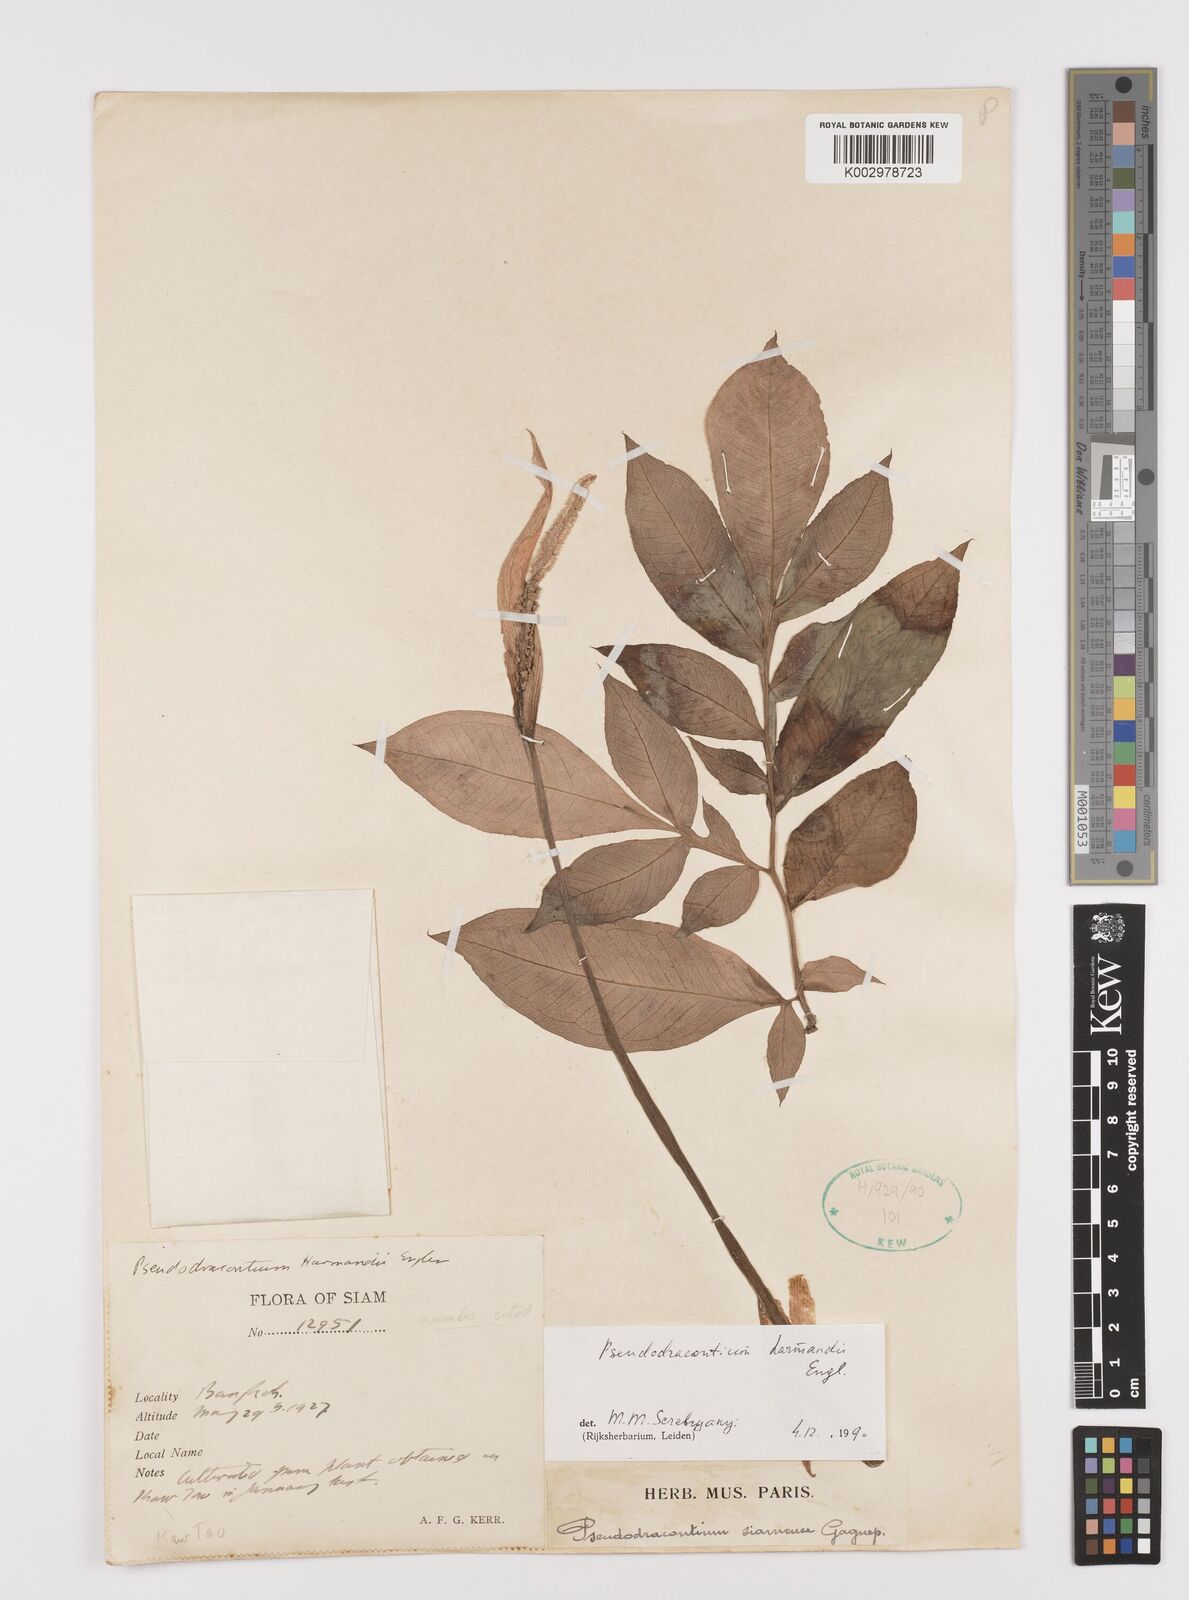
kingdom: Plantae
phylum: Tracheophyta
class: Liliopsida
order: Alismatales
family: Araceae
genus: Amorphophallus
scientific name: Amorphophallus harmandii
